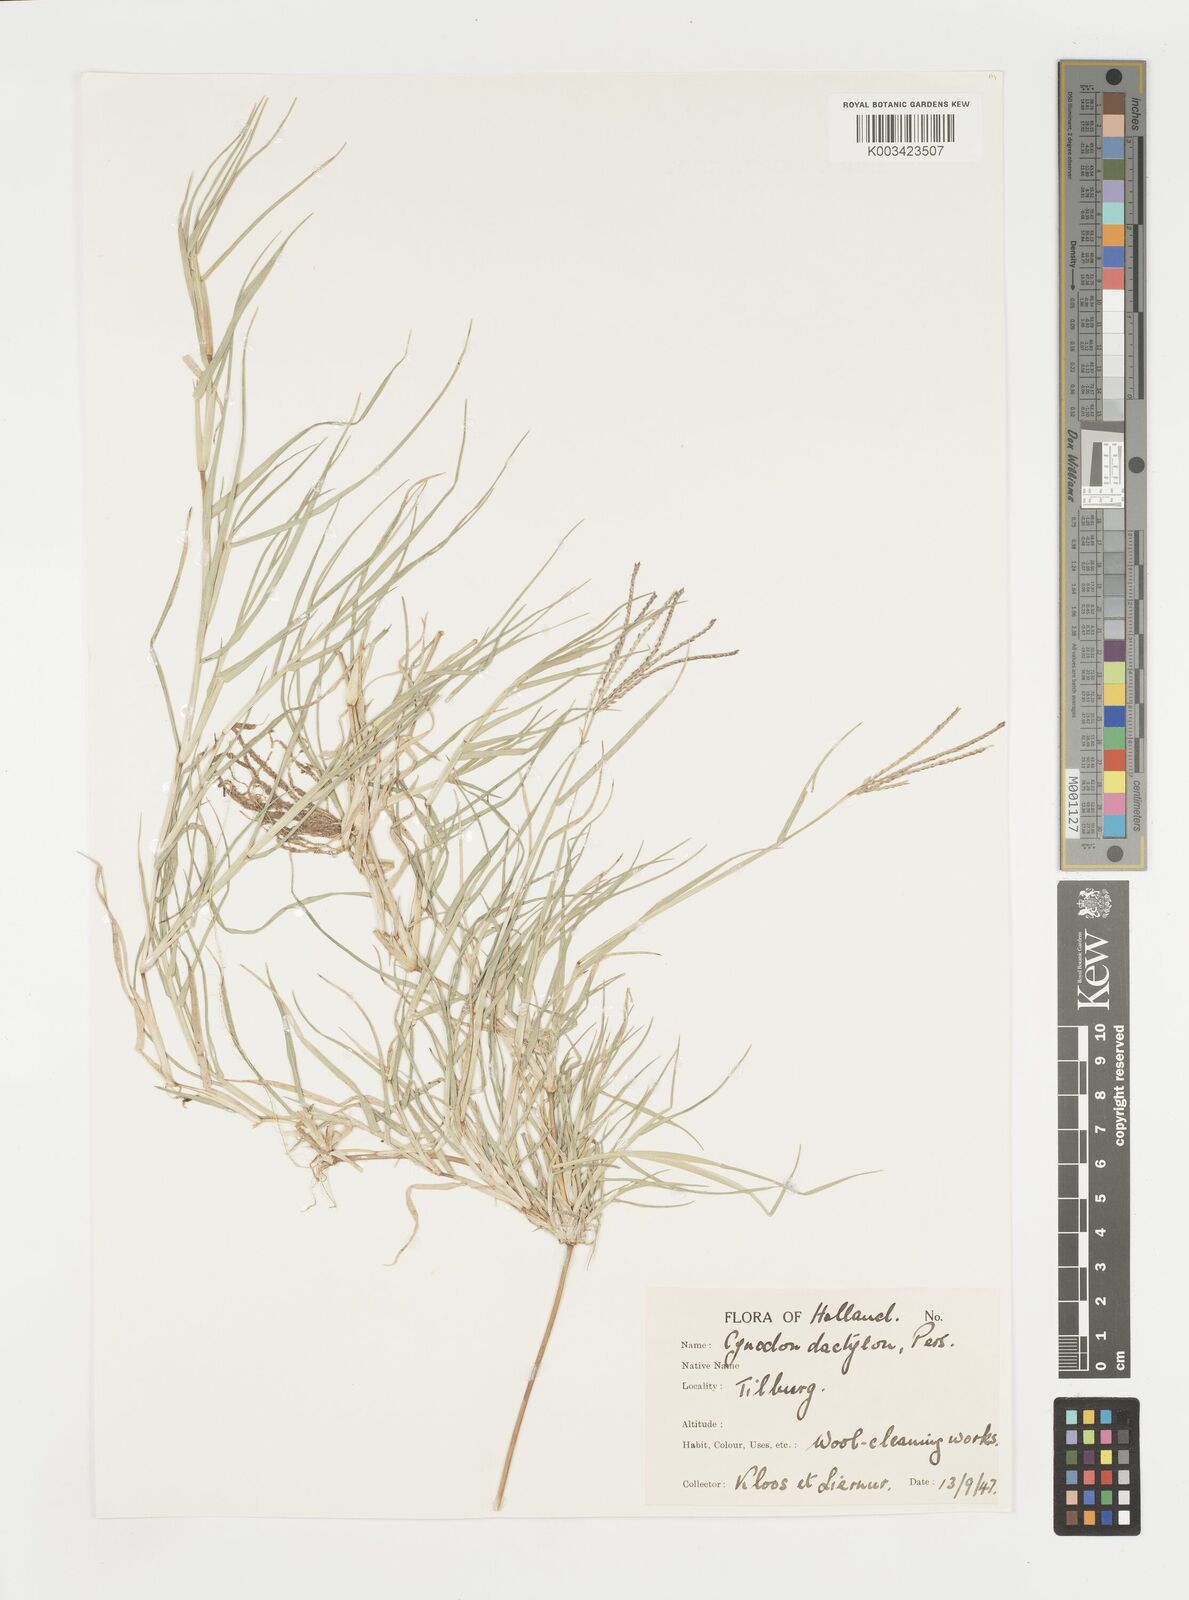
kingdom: Plantae
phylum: Tracheophyta
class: Liliopsida
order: Poales
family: Poaceae
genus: Cynodon
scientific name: Cynodon dactylon
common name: Bermuda grass
